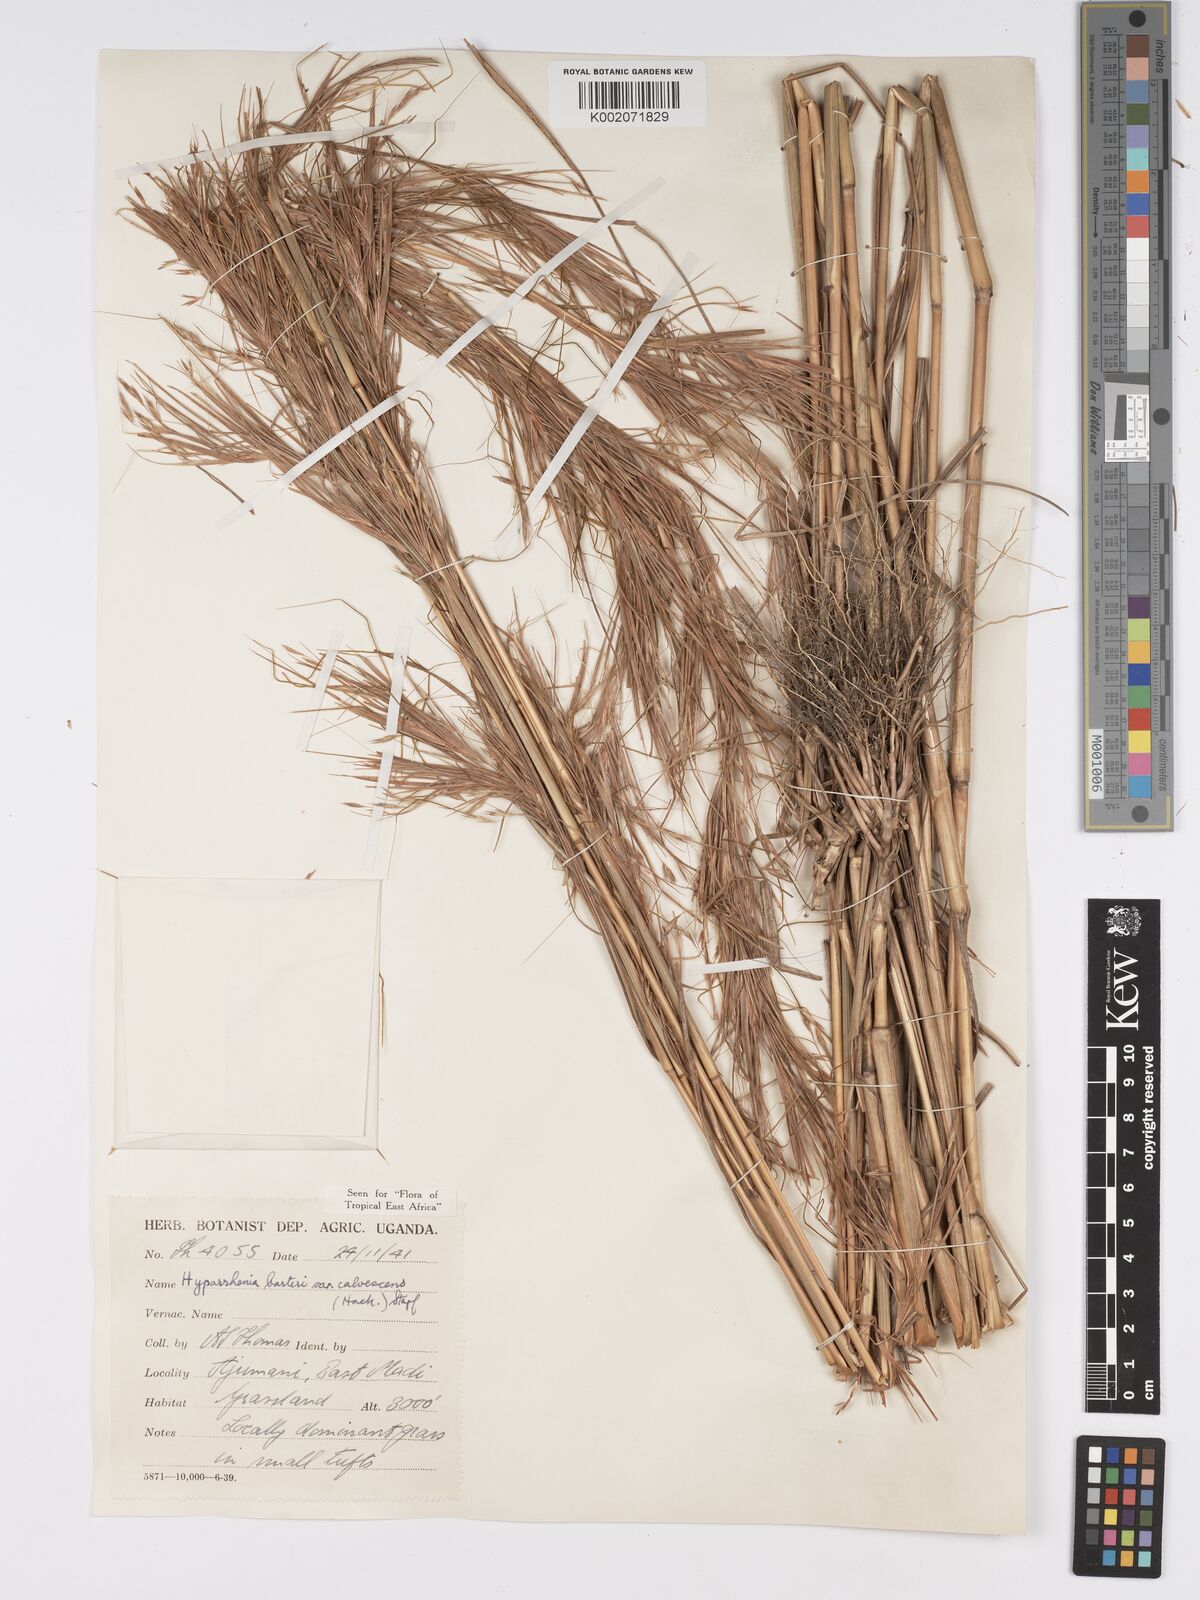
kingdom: Plantae
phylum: Tracheophyta
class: Liliopsida
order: Poales
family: Poaceae
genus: Hyparrhenia
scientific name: Hyparrhenia figariana
